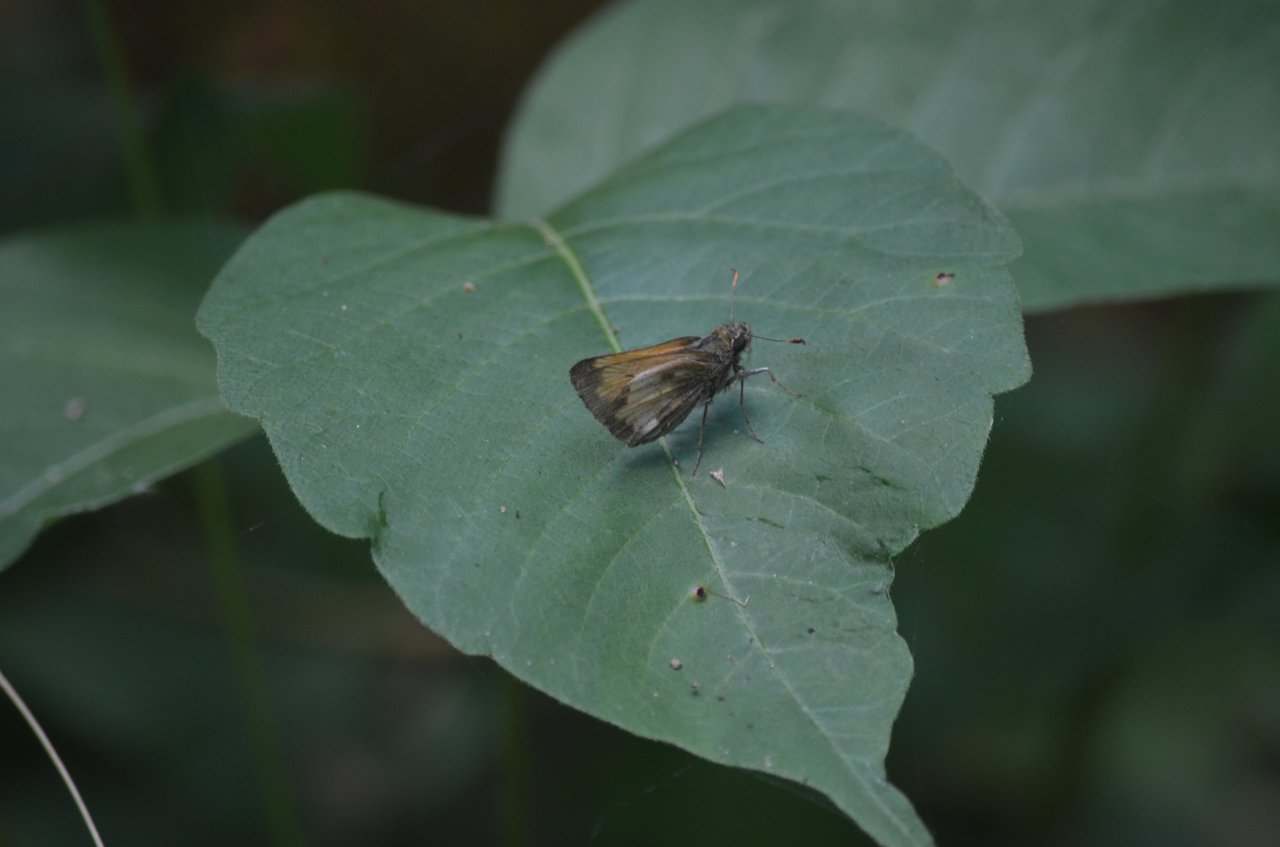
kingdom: Animalia
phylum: Arthropoda
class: Insecta
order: Lepidoptera
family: Hesperiidae
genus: Lon
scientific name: Lon hobomok
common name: Hobomok Skipper
